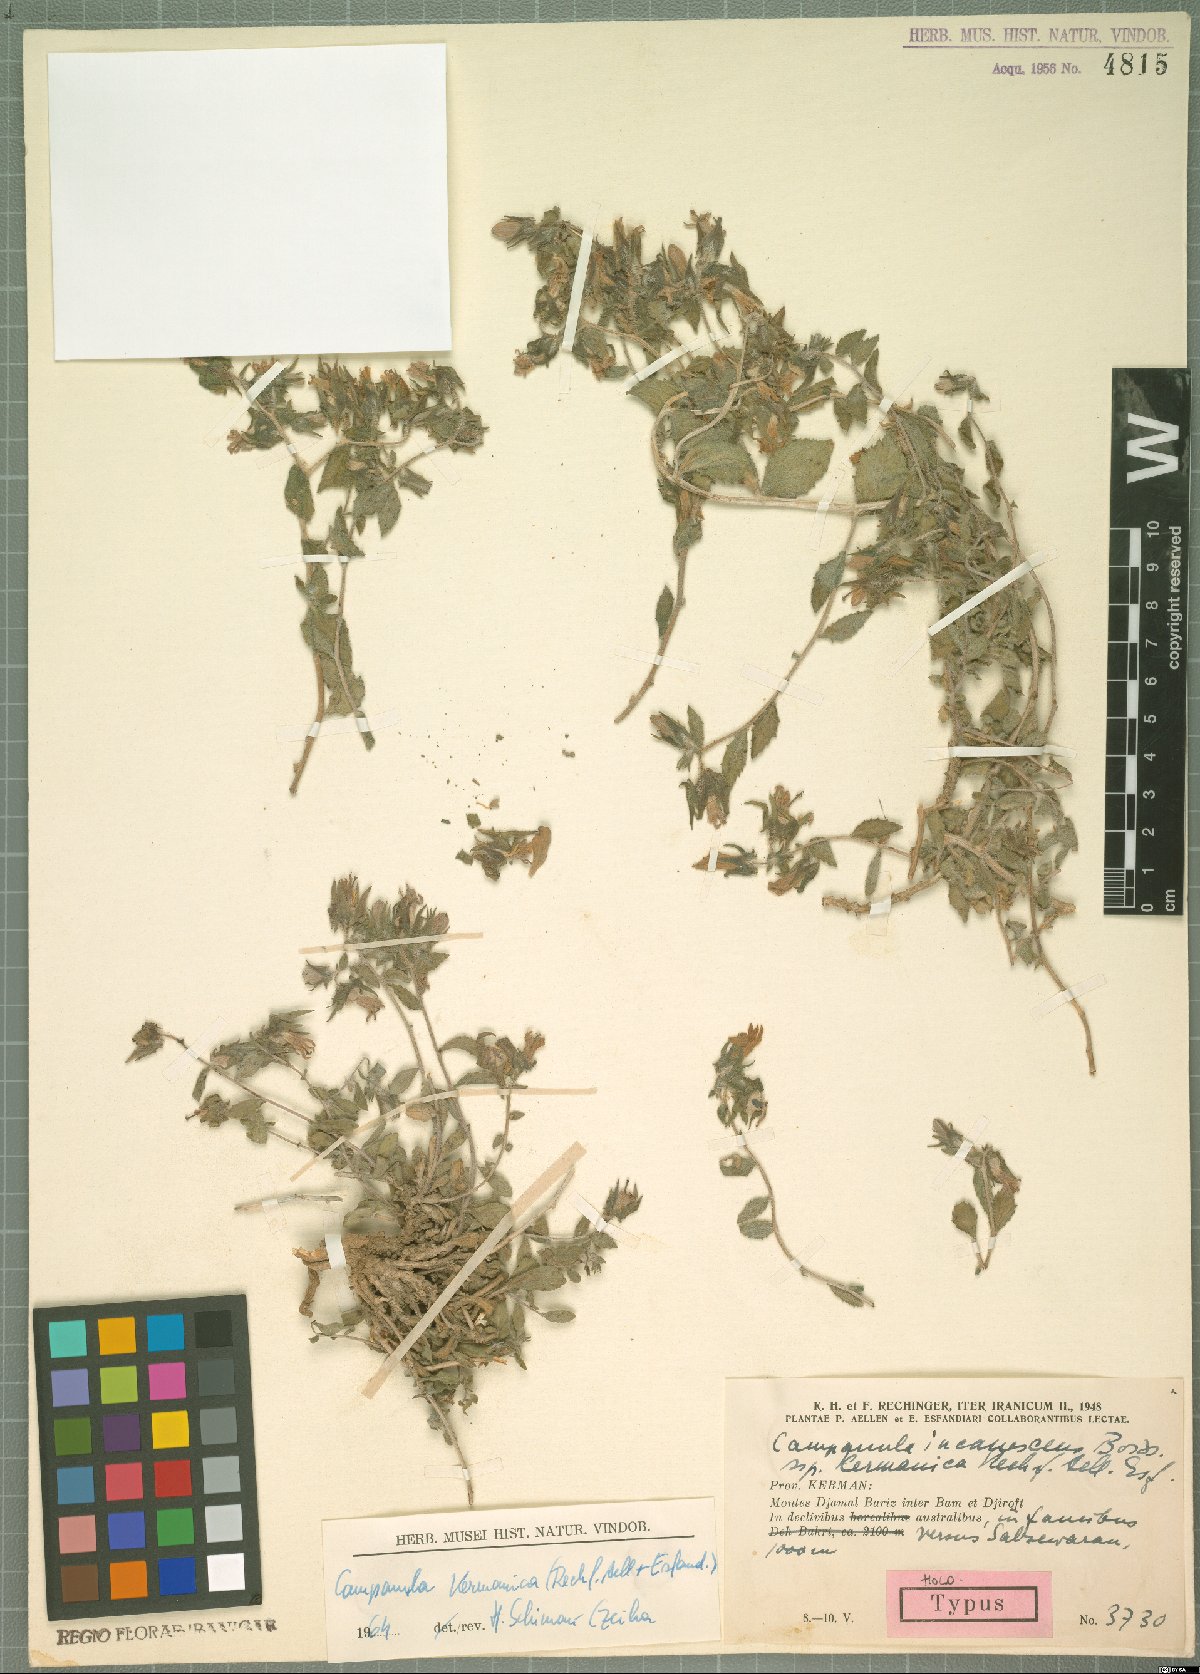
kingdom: Plantae
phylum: Tracheophyta
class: Magnoliopsida
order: Asterales
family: Campanulaceae
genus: Campanula
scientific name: Campanula kermanica
